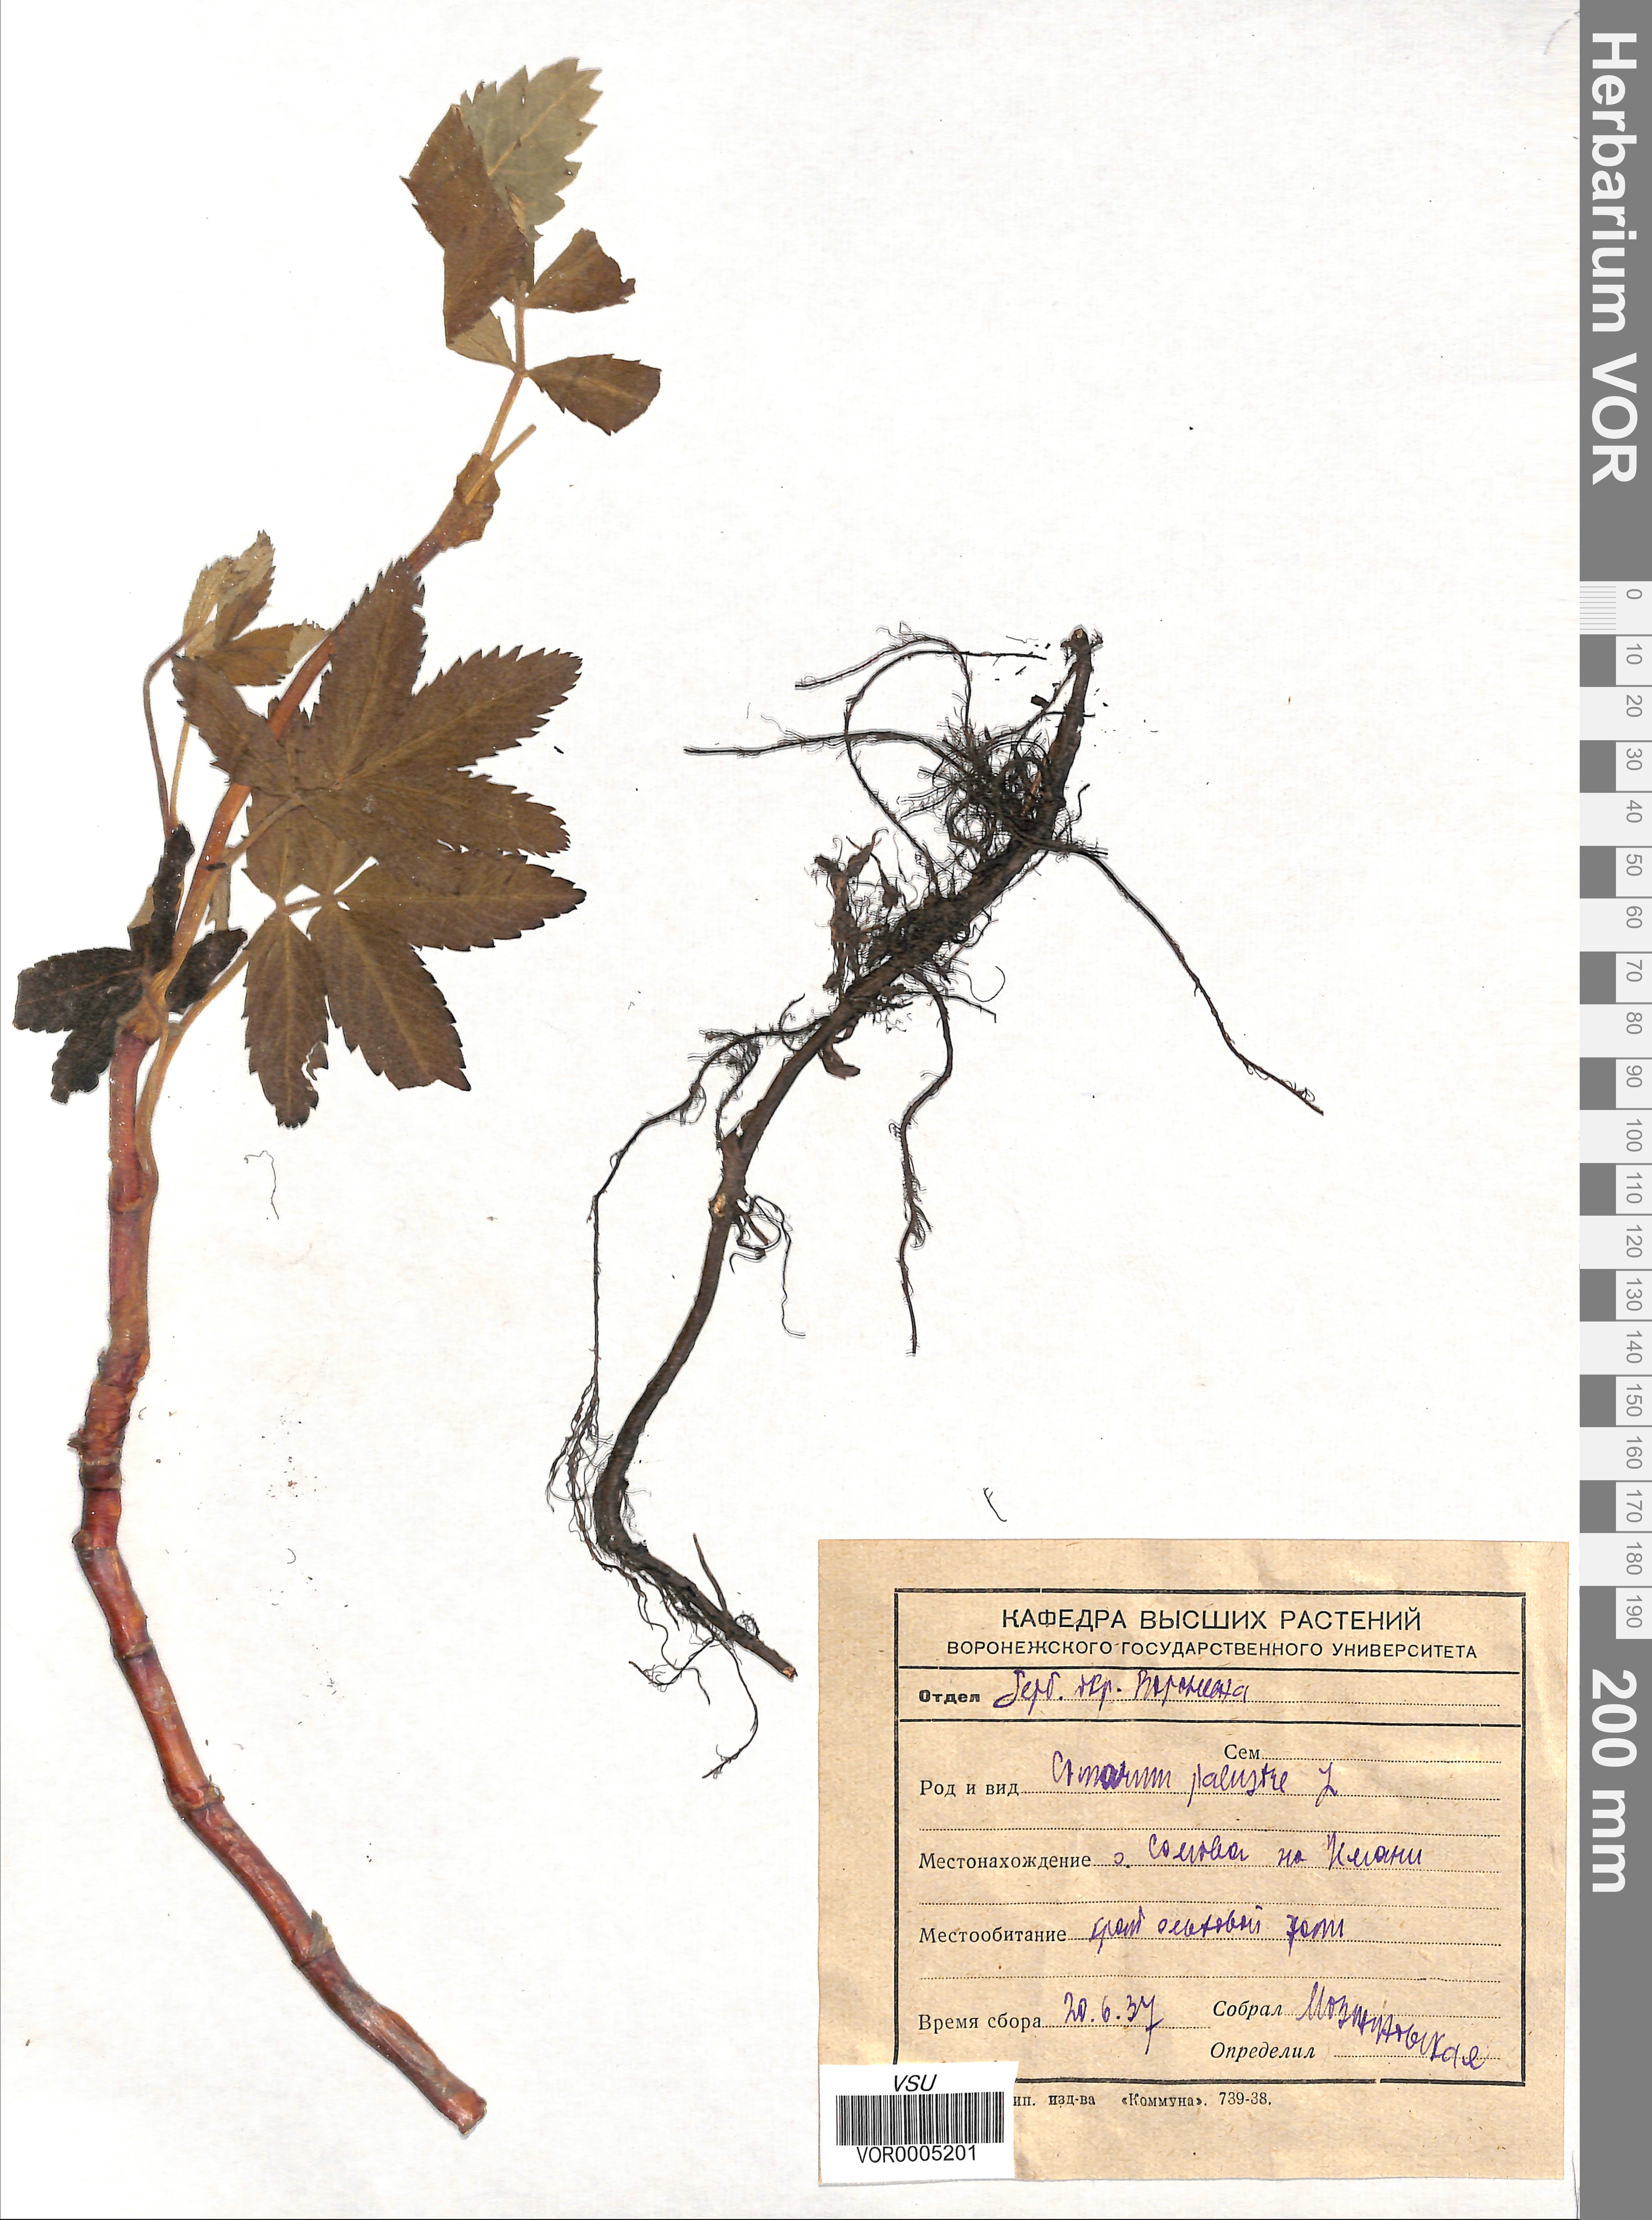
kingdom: Plantae
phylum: Tracheophyta
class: Magnoliopsida
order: Rosales
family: Rosaceae
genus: Comarum
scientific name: Comarum palustre
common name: Marsh cinquefoil
